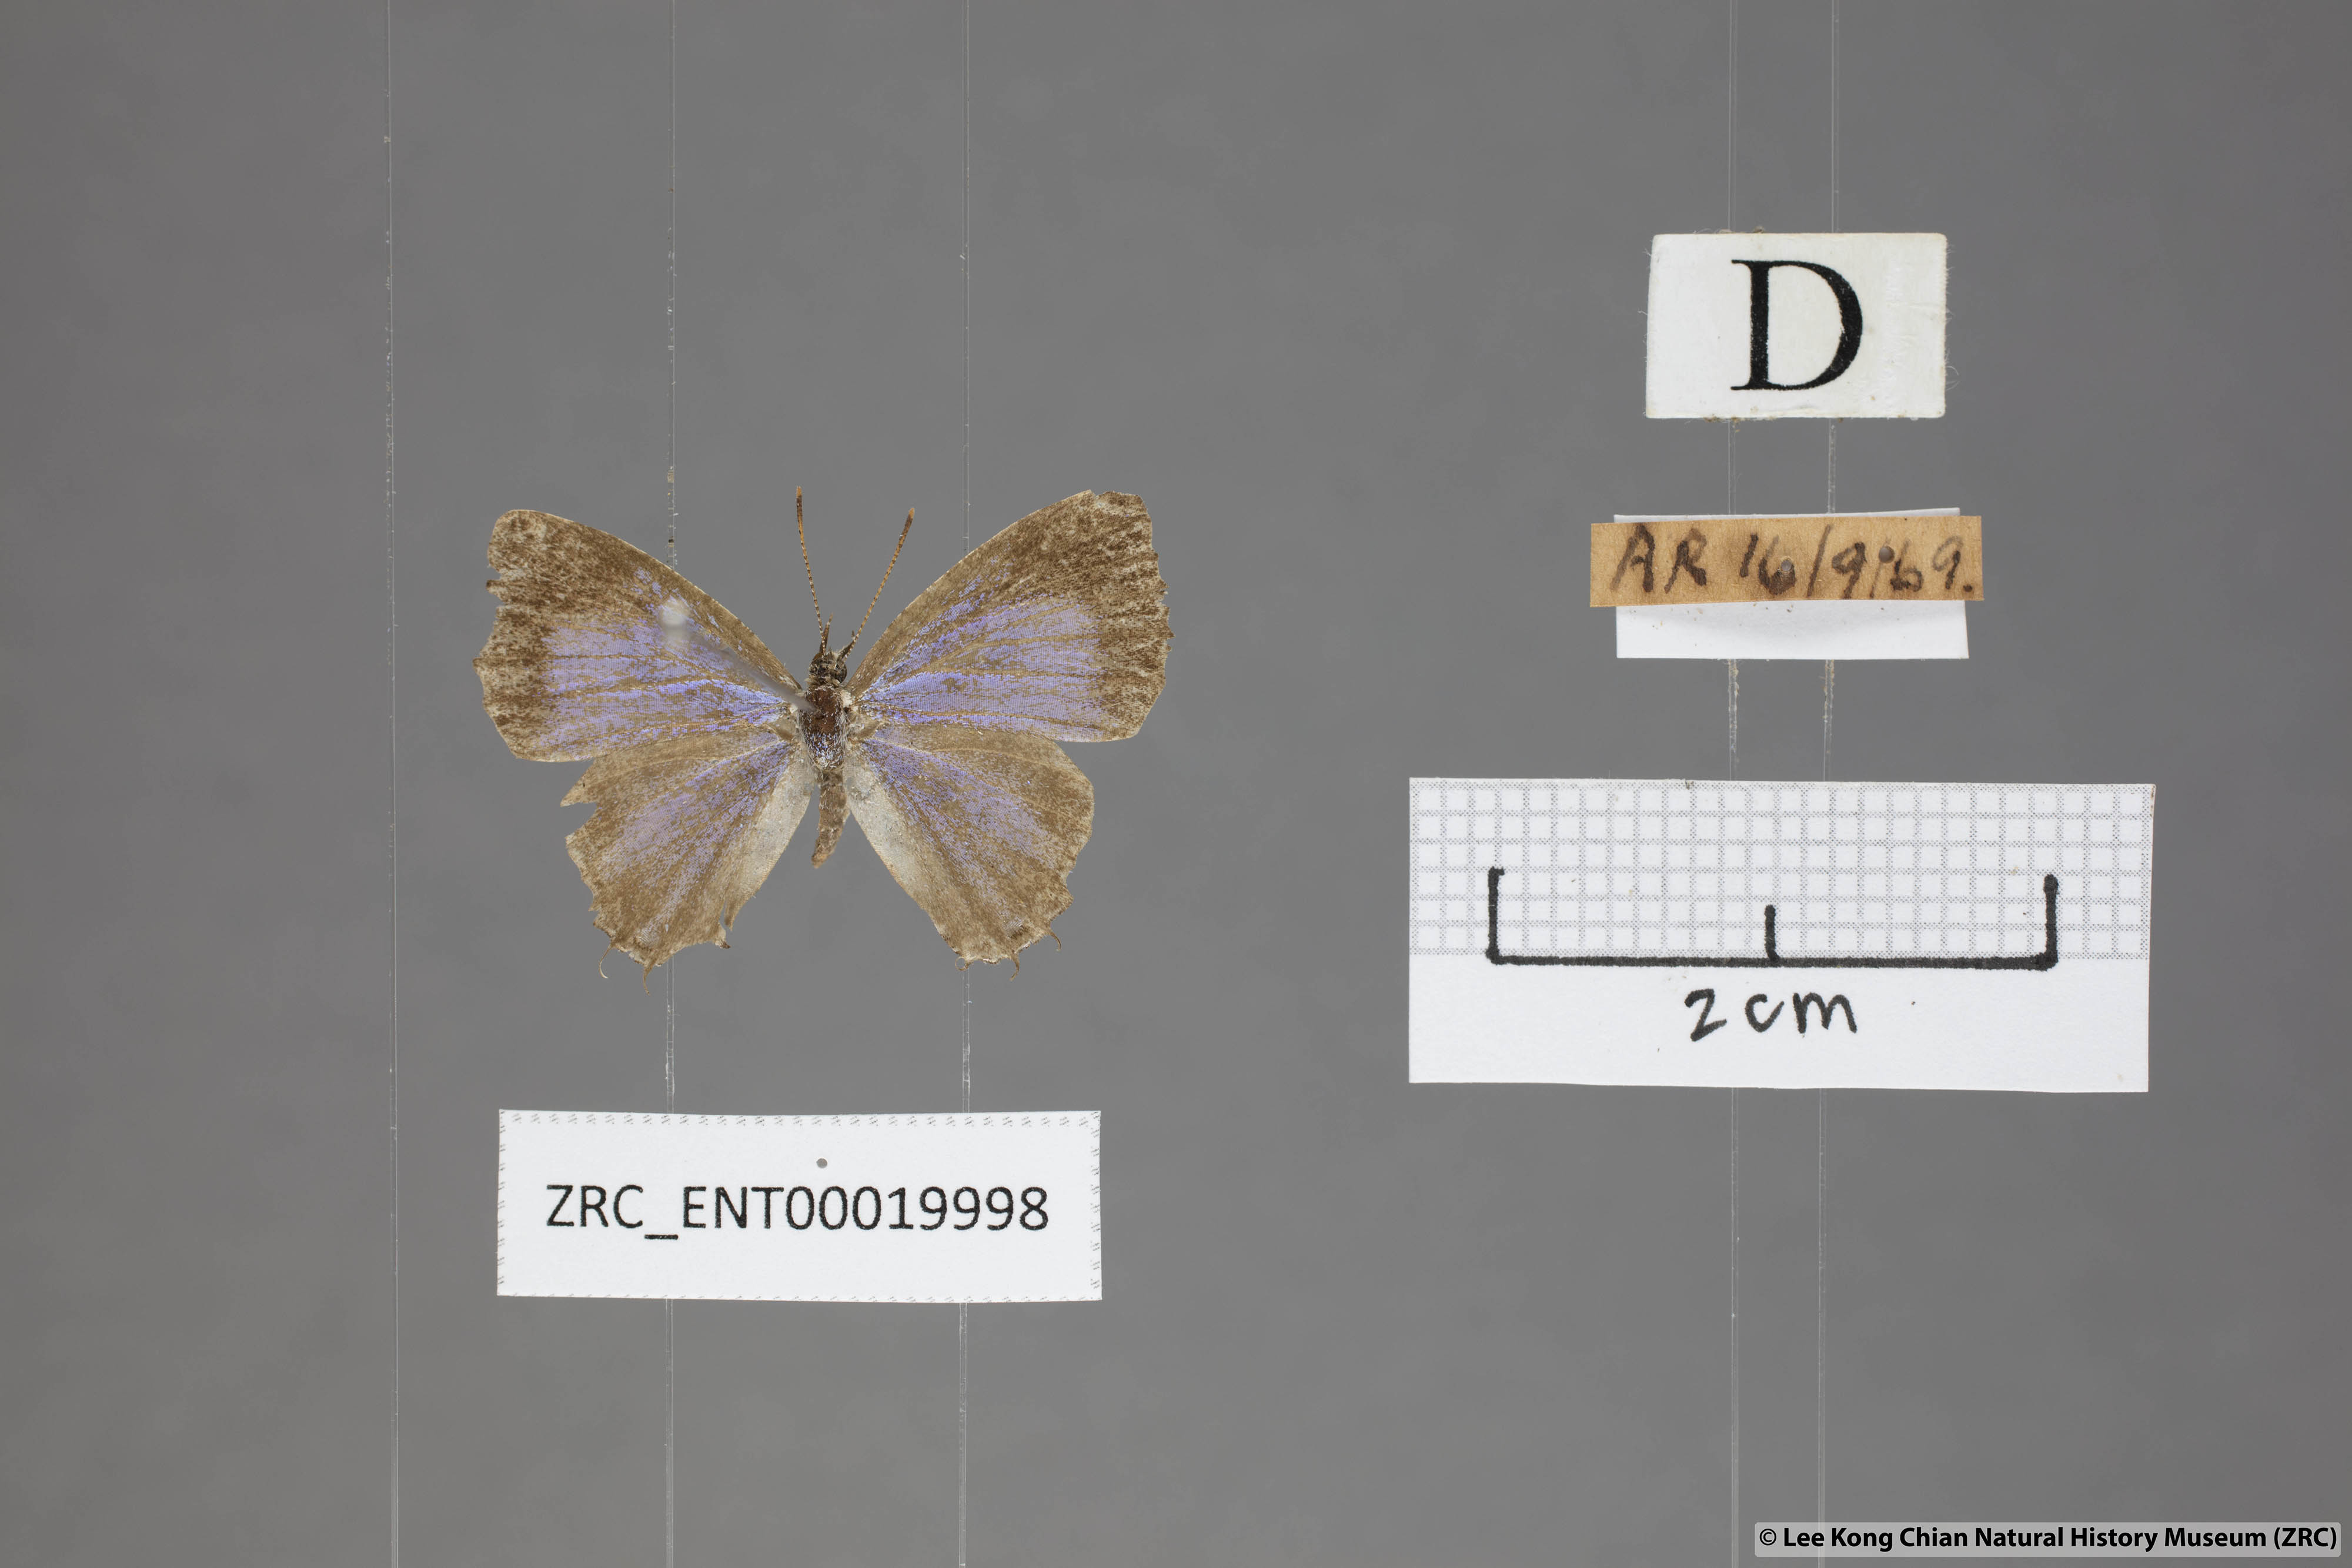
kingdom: Animalia
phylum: Arthropoda
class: Insecta
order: Lepidoptera
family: Lycaenidae
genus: Catapaecilma
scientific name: Catapaecilma elegans
